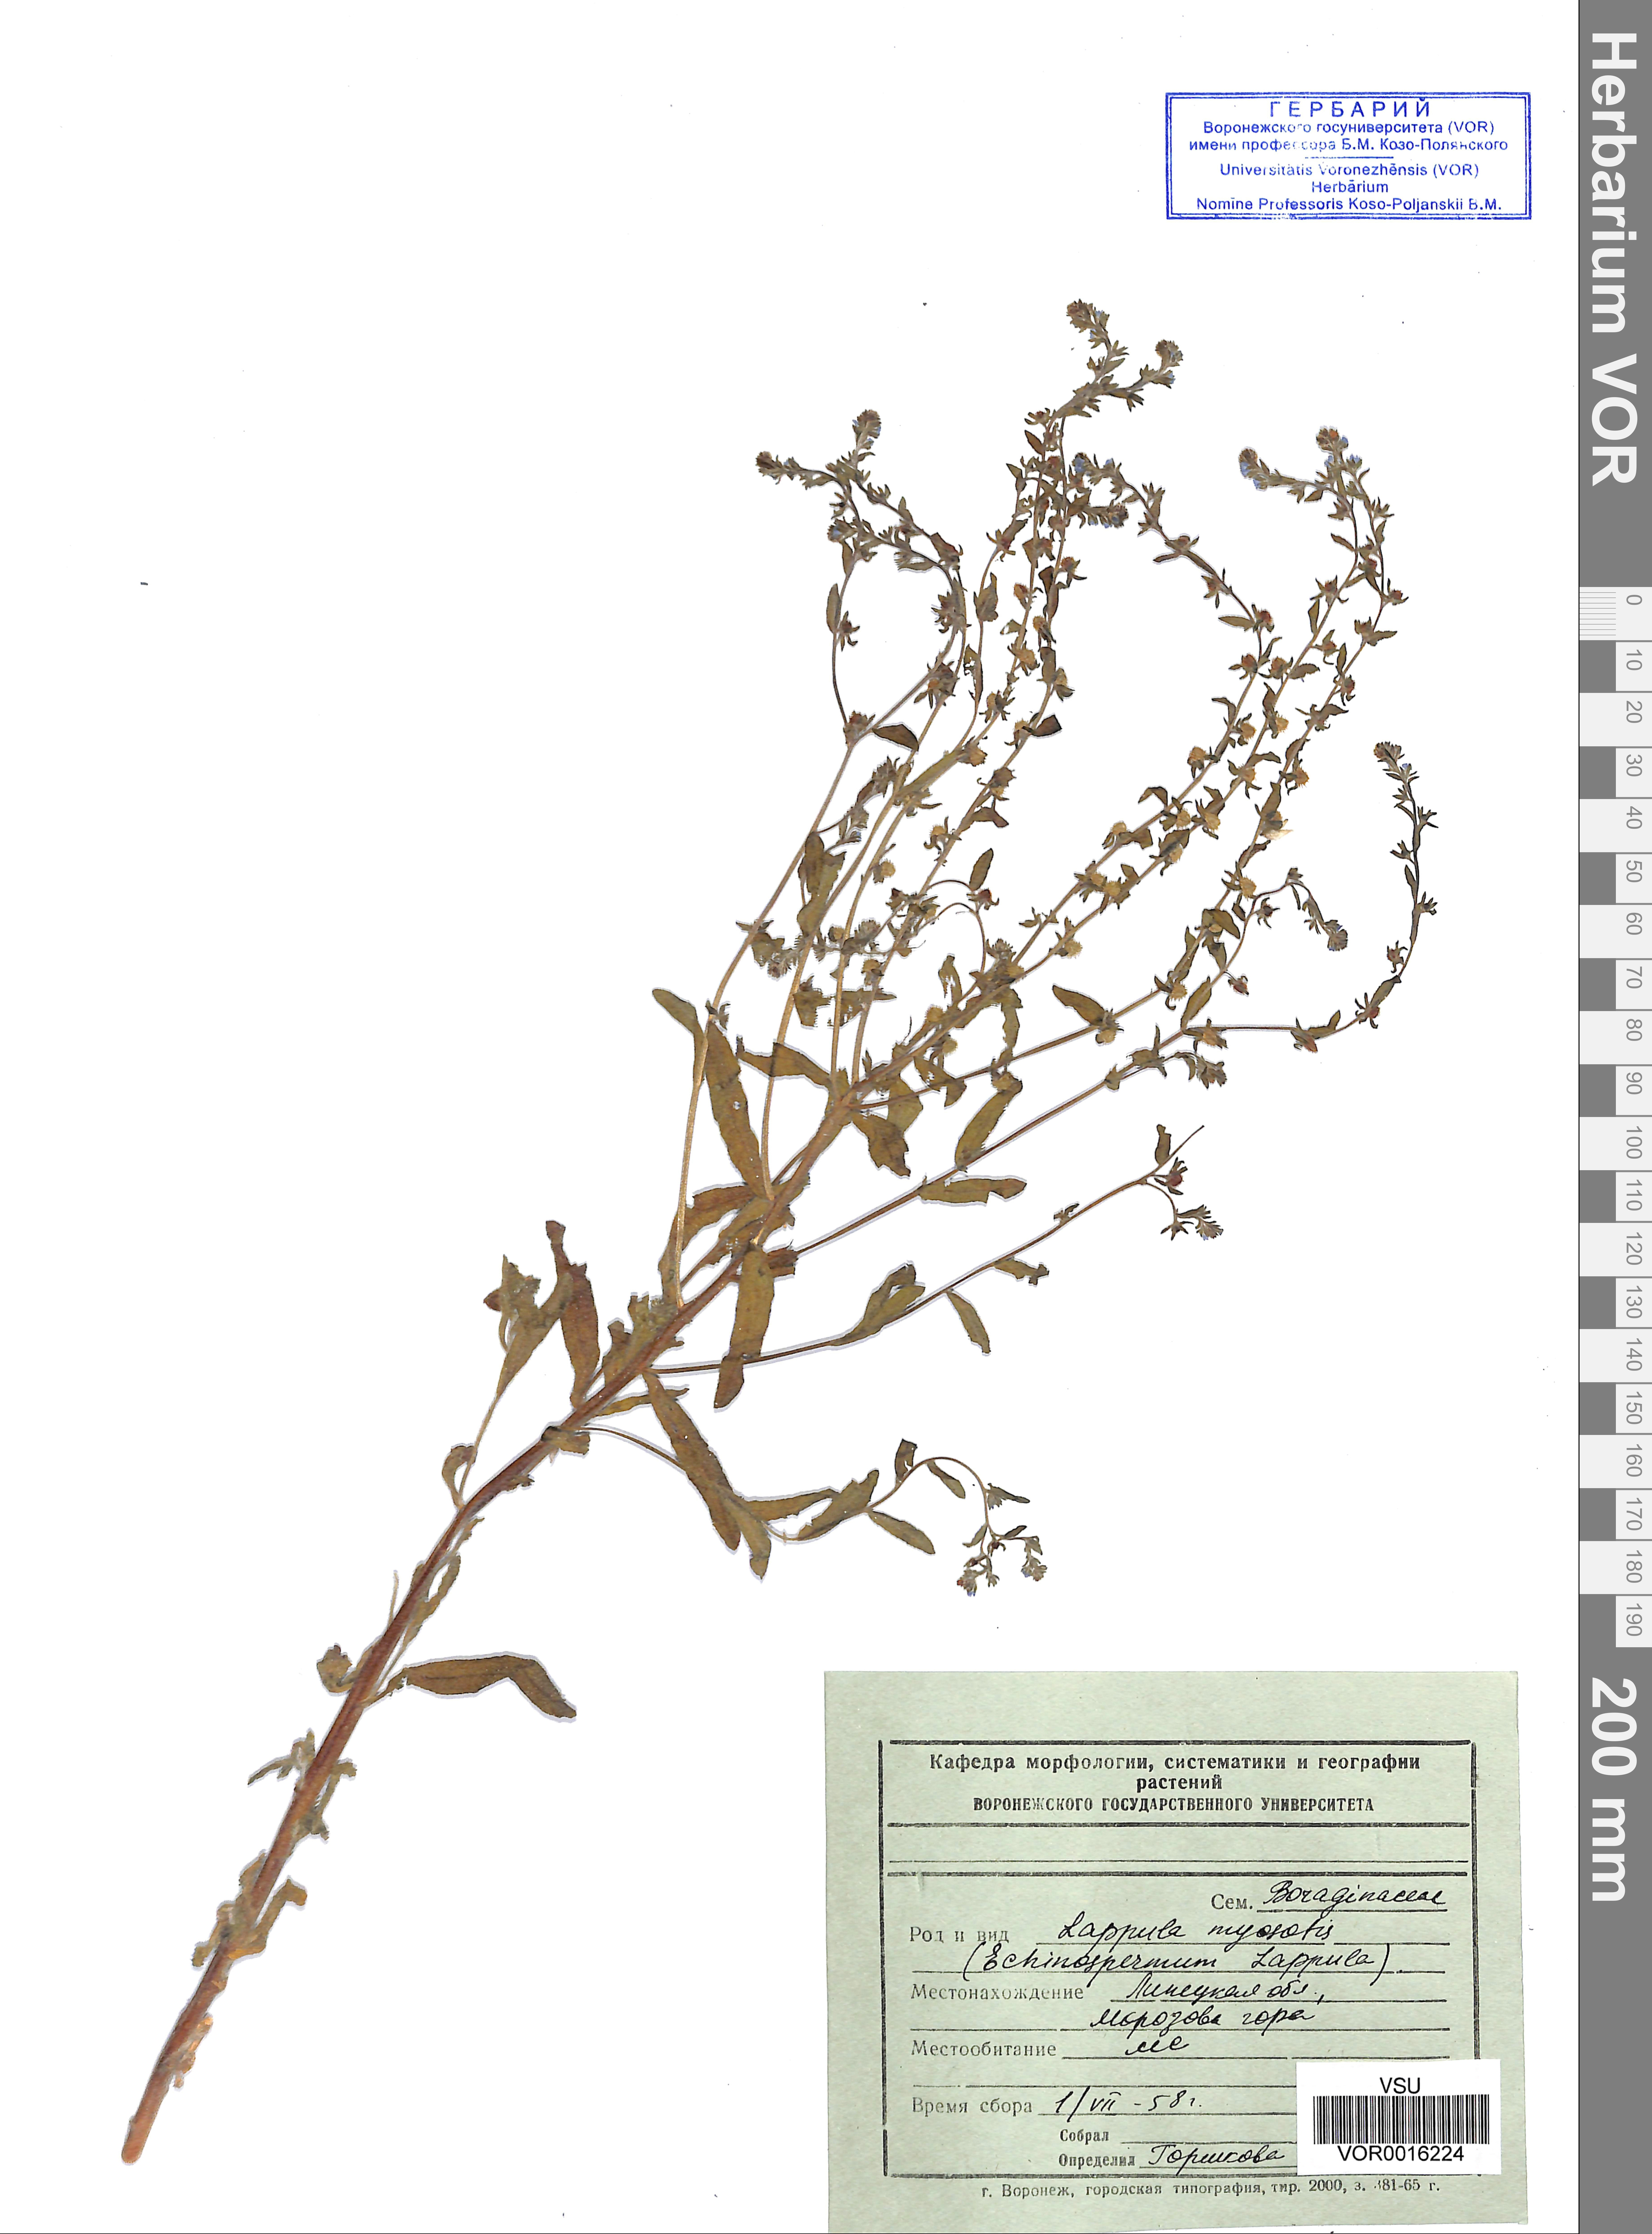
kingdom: Plantae
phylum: Tracheophyta
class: Magnoliopsida
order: Boraginales
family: Boraginaceae
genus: Lappula
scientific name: Lappula squarrosa
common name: European stickseed
